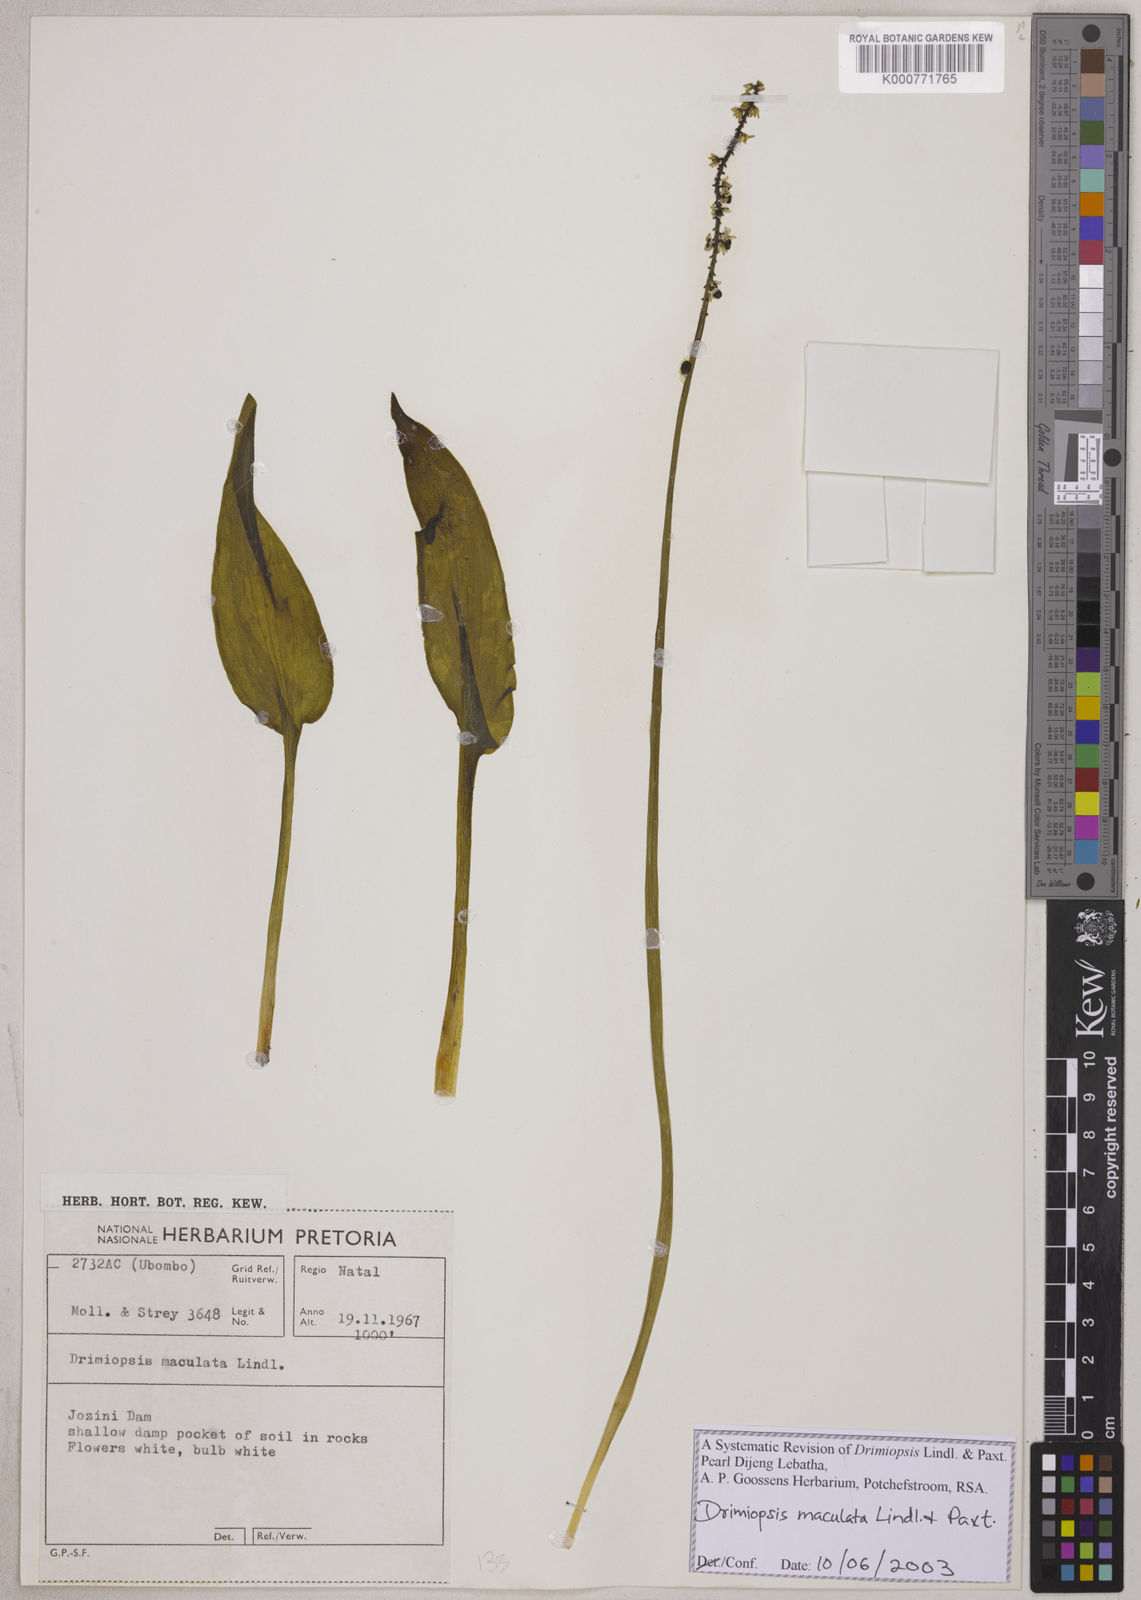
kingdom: Plantae
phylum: Tracheophyta
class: Liliopsida
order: Asparagales
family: Asparagaceae
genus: Drimiopsis
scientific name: Drimiopsis maculata
